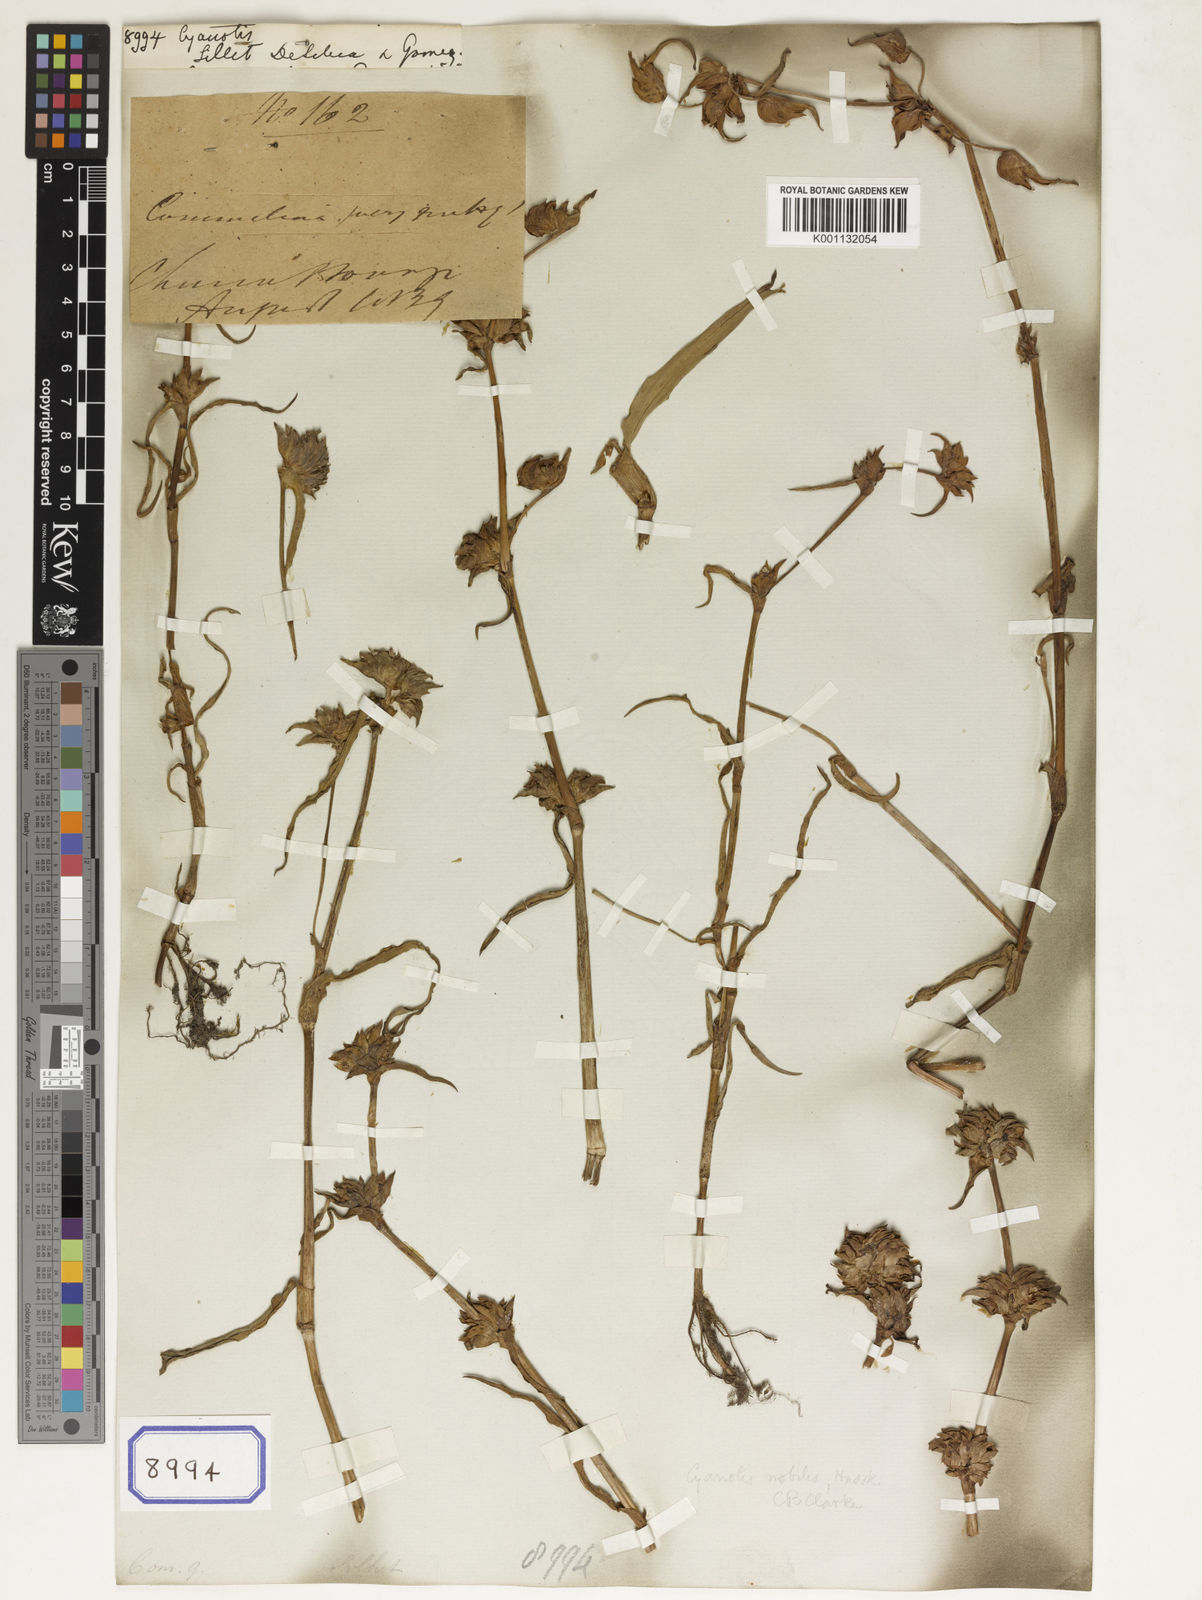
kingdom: Plantae
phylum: Tracheophyta
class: Liliopsida
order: Commelinales
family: Commelinaceae
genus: Cyanotis
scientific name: Cyanotis
